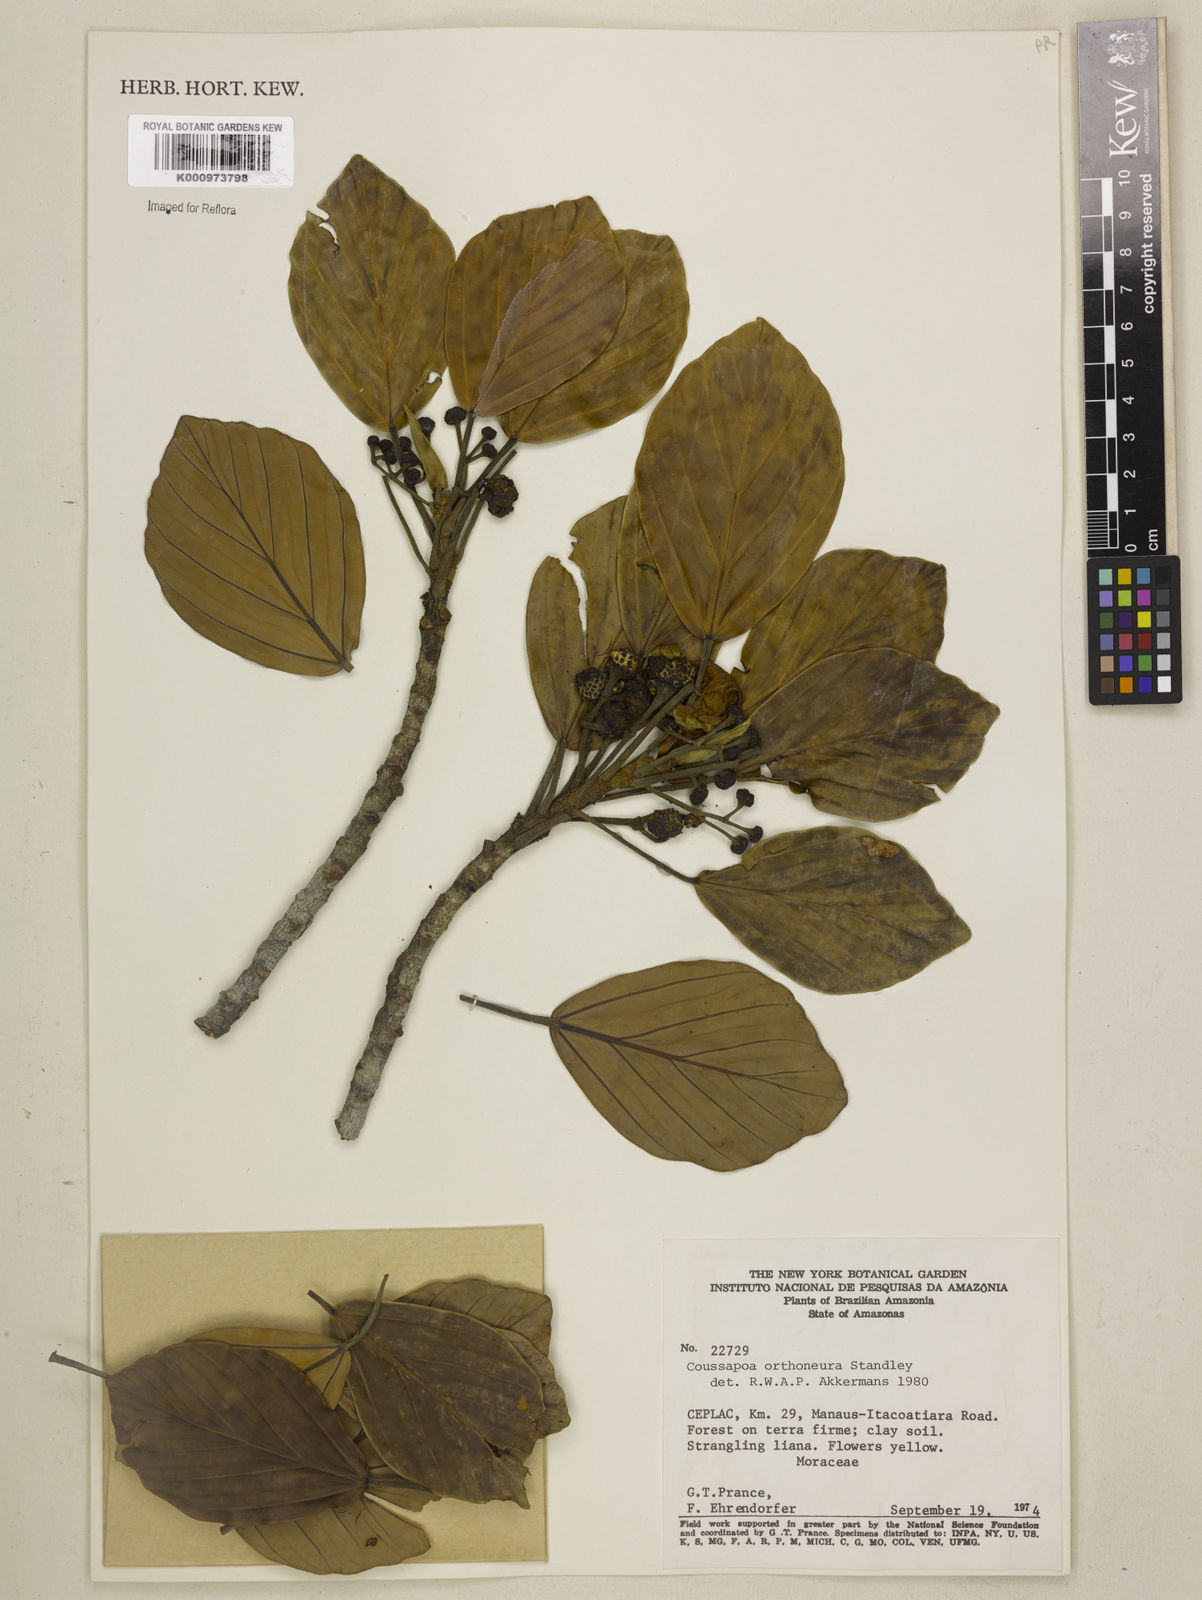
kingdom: Plantae
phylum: Tracheophyta
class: Magnoliopsida
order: Rosales
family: Urticaceae
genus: Coussapoa
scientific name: Coussapoa orthoneura
